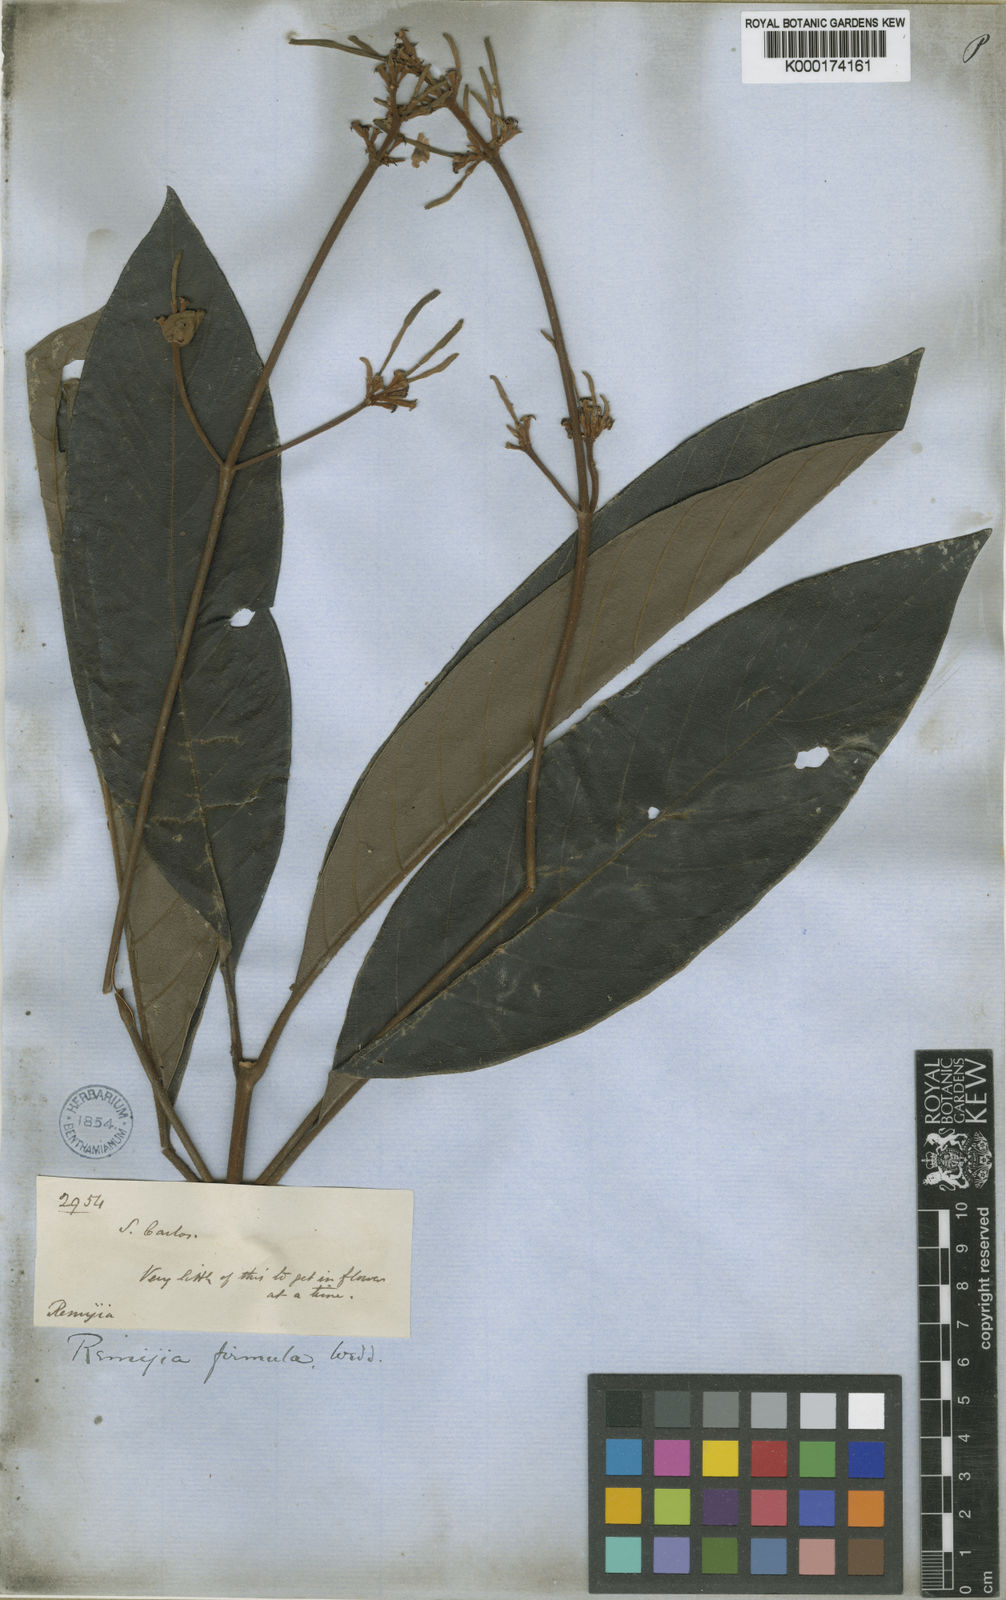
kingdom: Plantae
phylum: Tracheophyta
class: Magnoliopsida
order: Gentianales
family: Rubiaceae
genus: Remijia
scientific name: Remijia firmula
